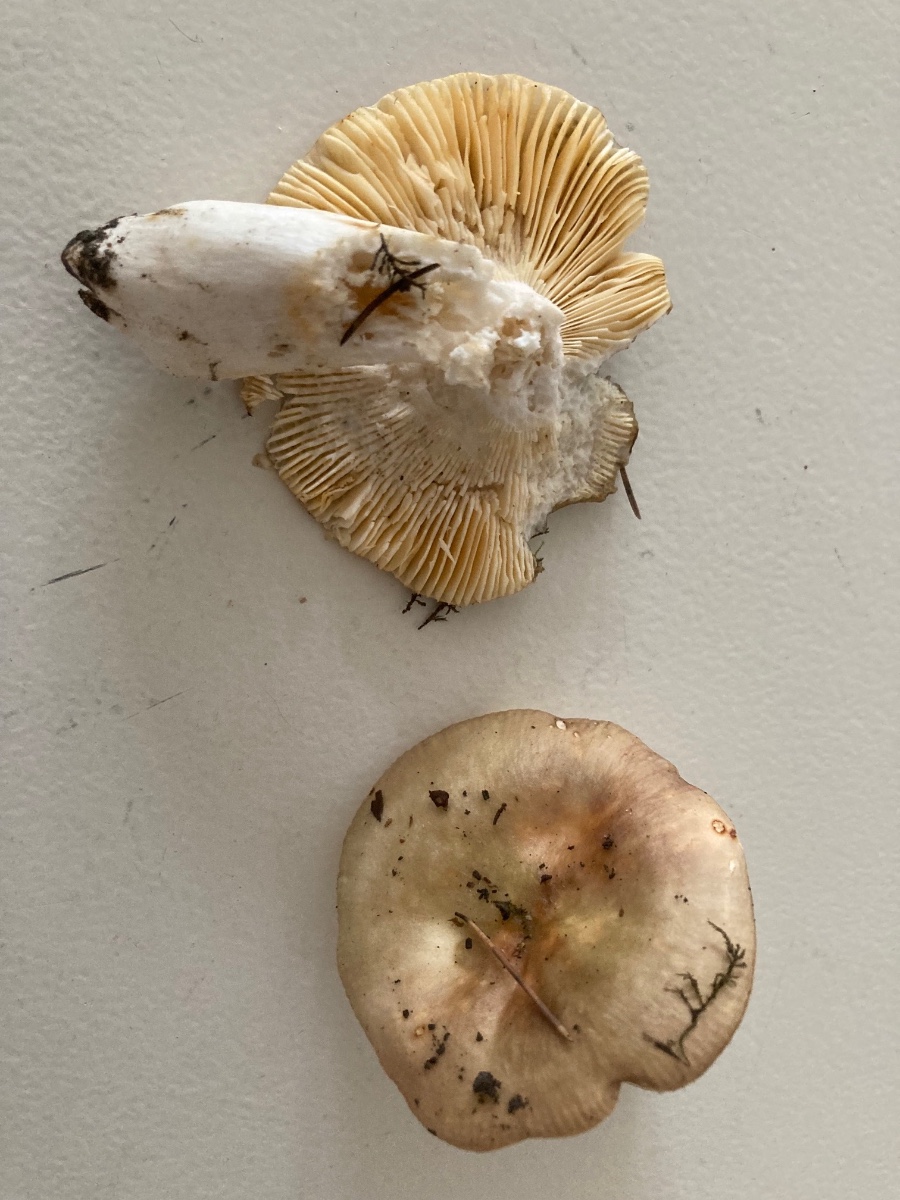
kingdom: Fungi
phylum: Basidiomycota
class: Agaricomycetes
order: Russulales
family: Russulaceae
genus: Russula
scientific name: Russula carpini
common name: avnbøg-skørhat
